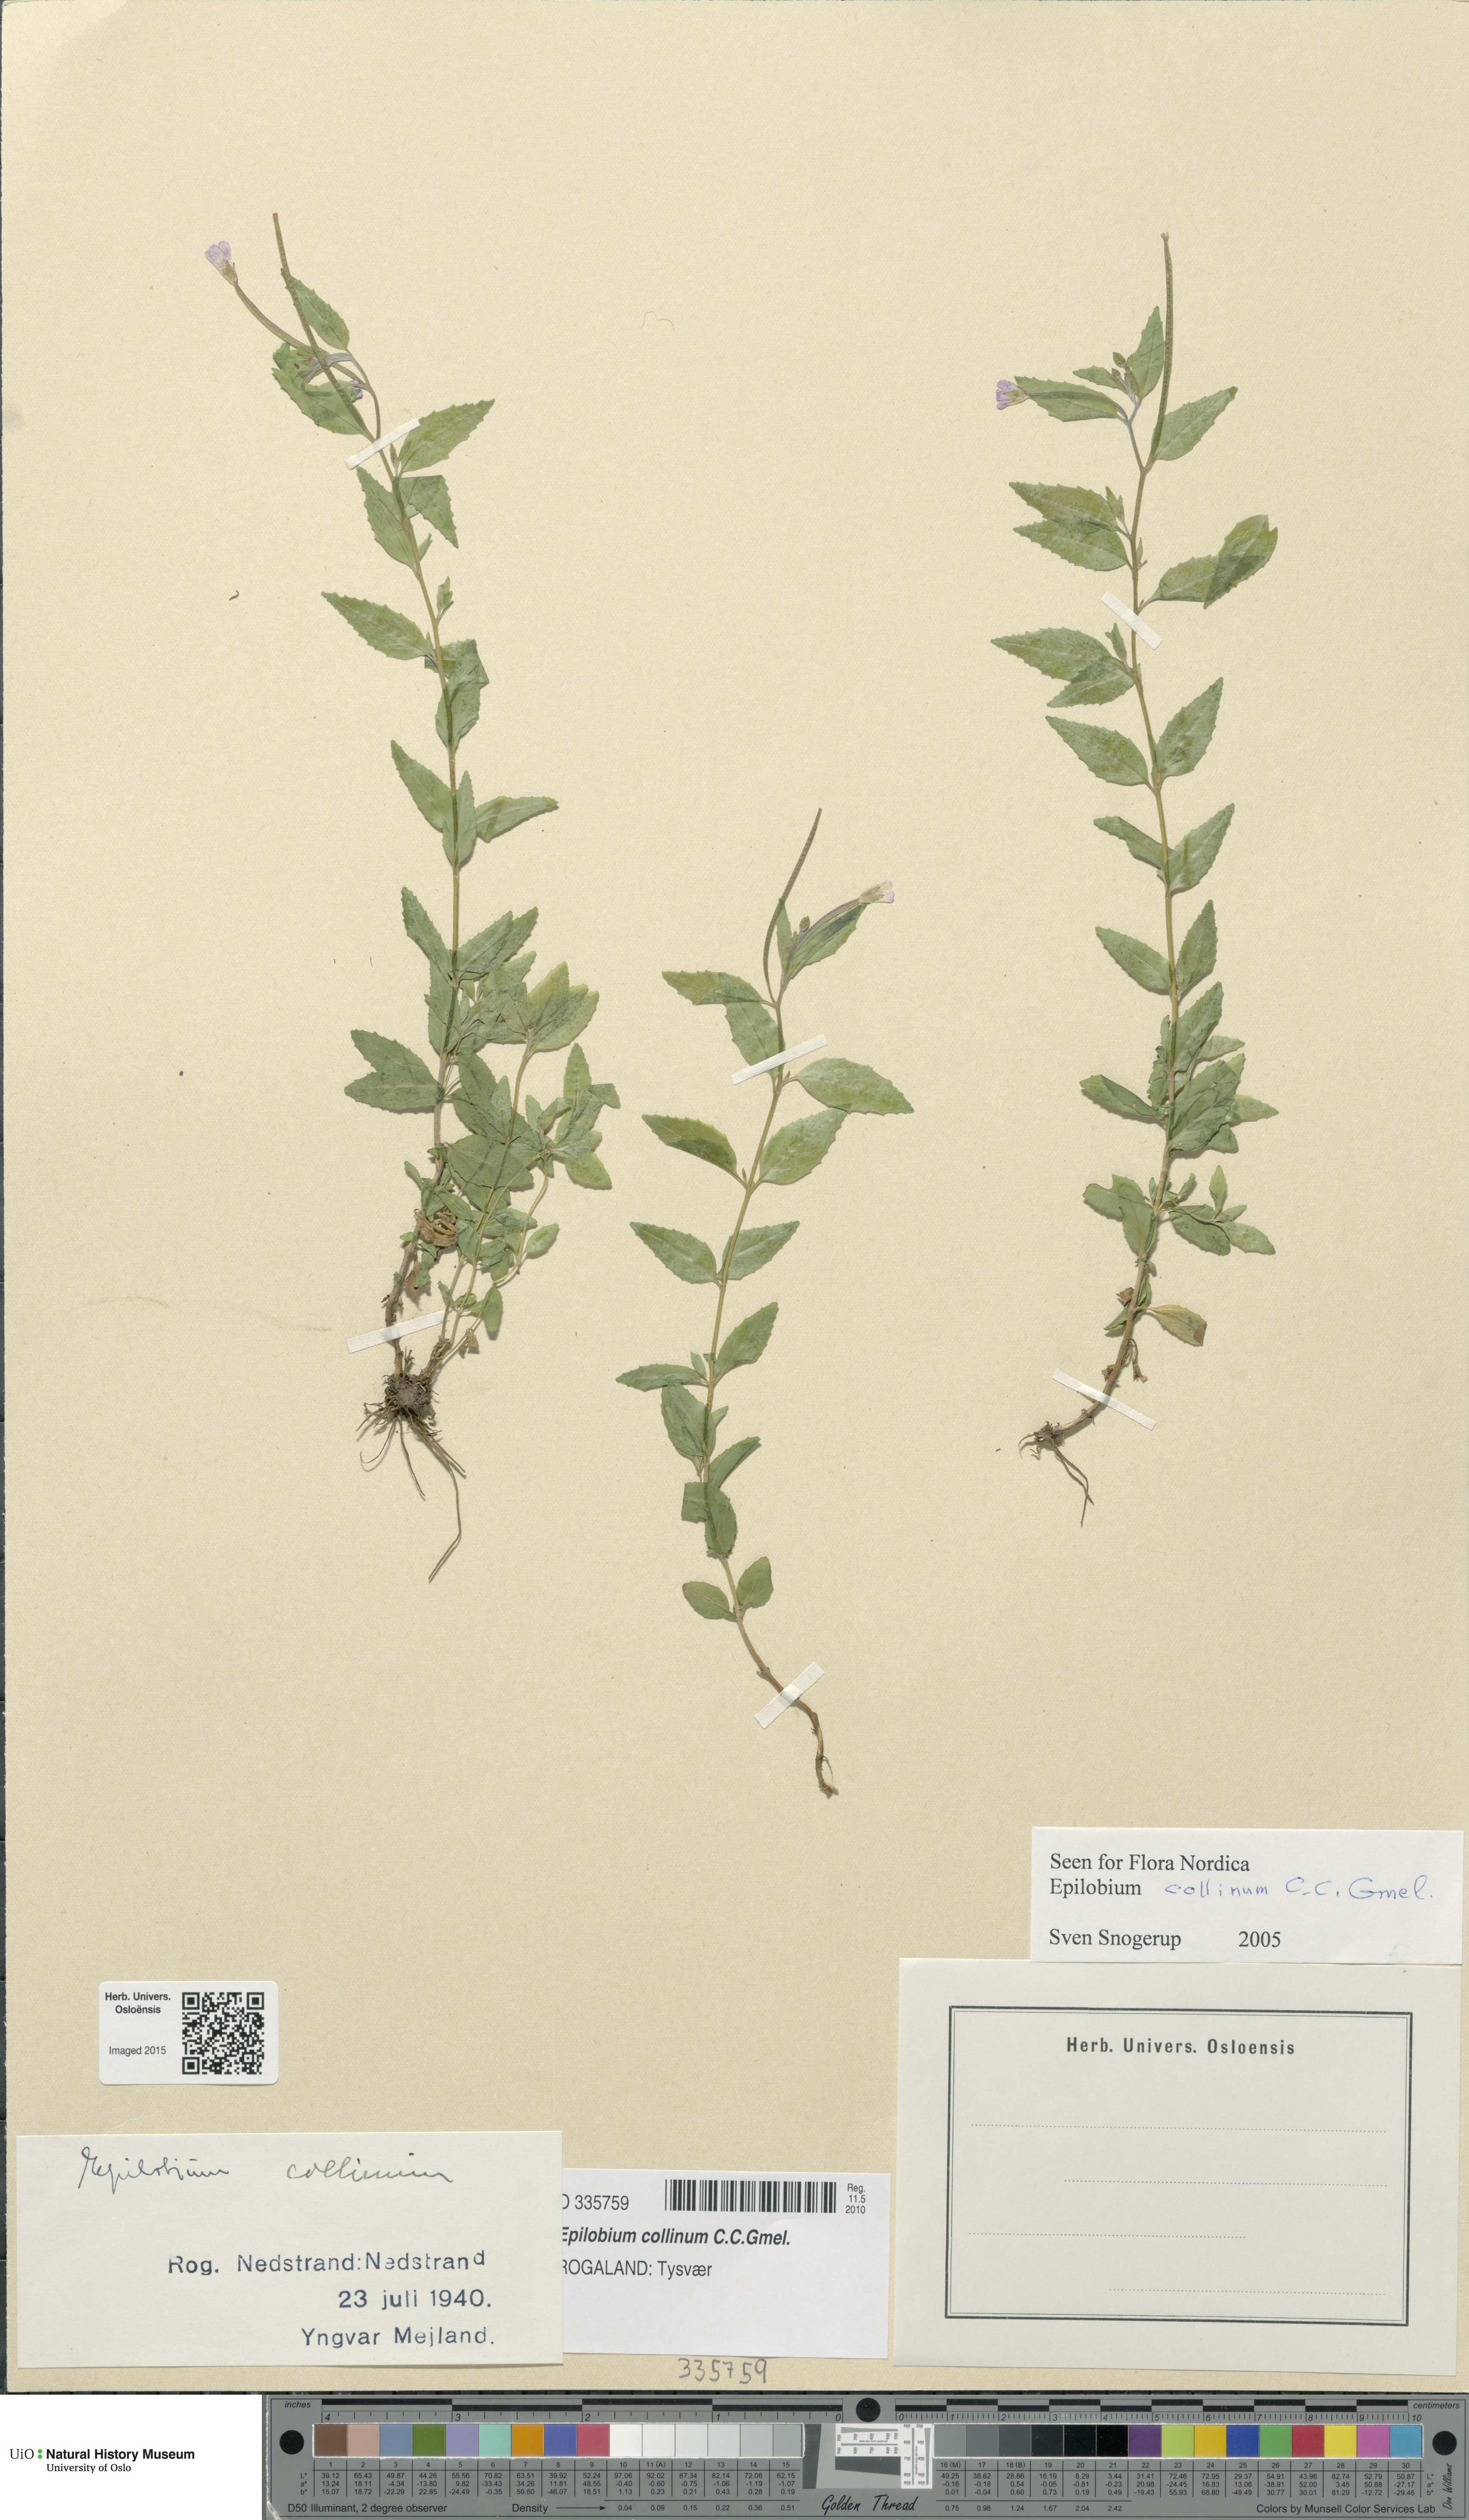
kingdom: Plantae
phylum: Tracheophyta
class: Magnoliopsida
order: Myrtales
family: Onagraceae
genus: Epilobium
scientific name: Epilobium collinum
